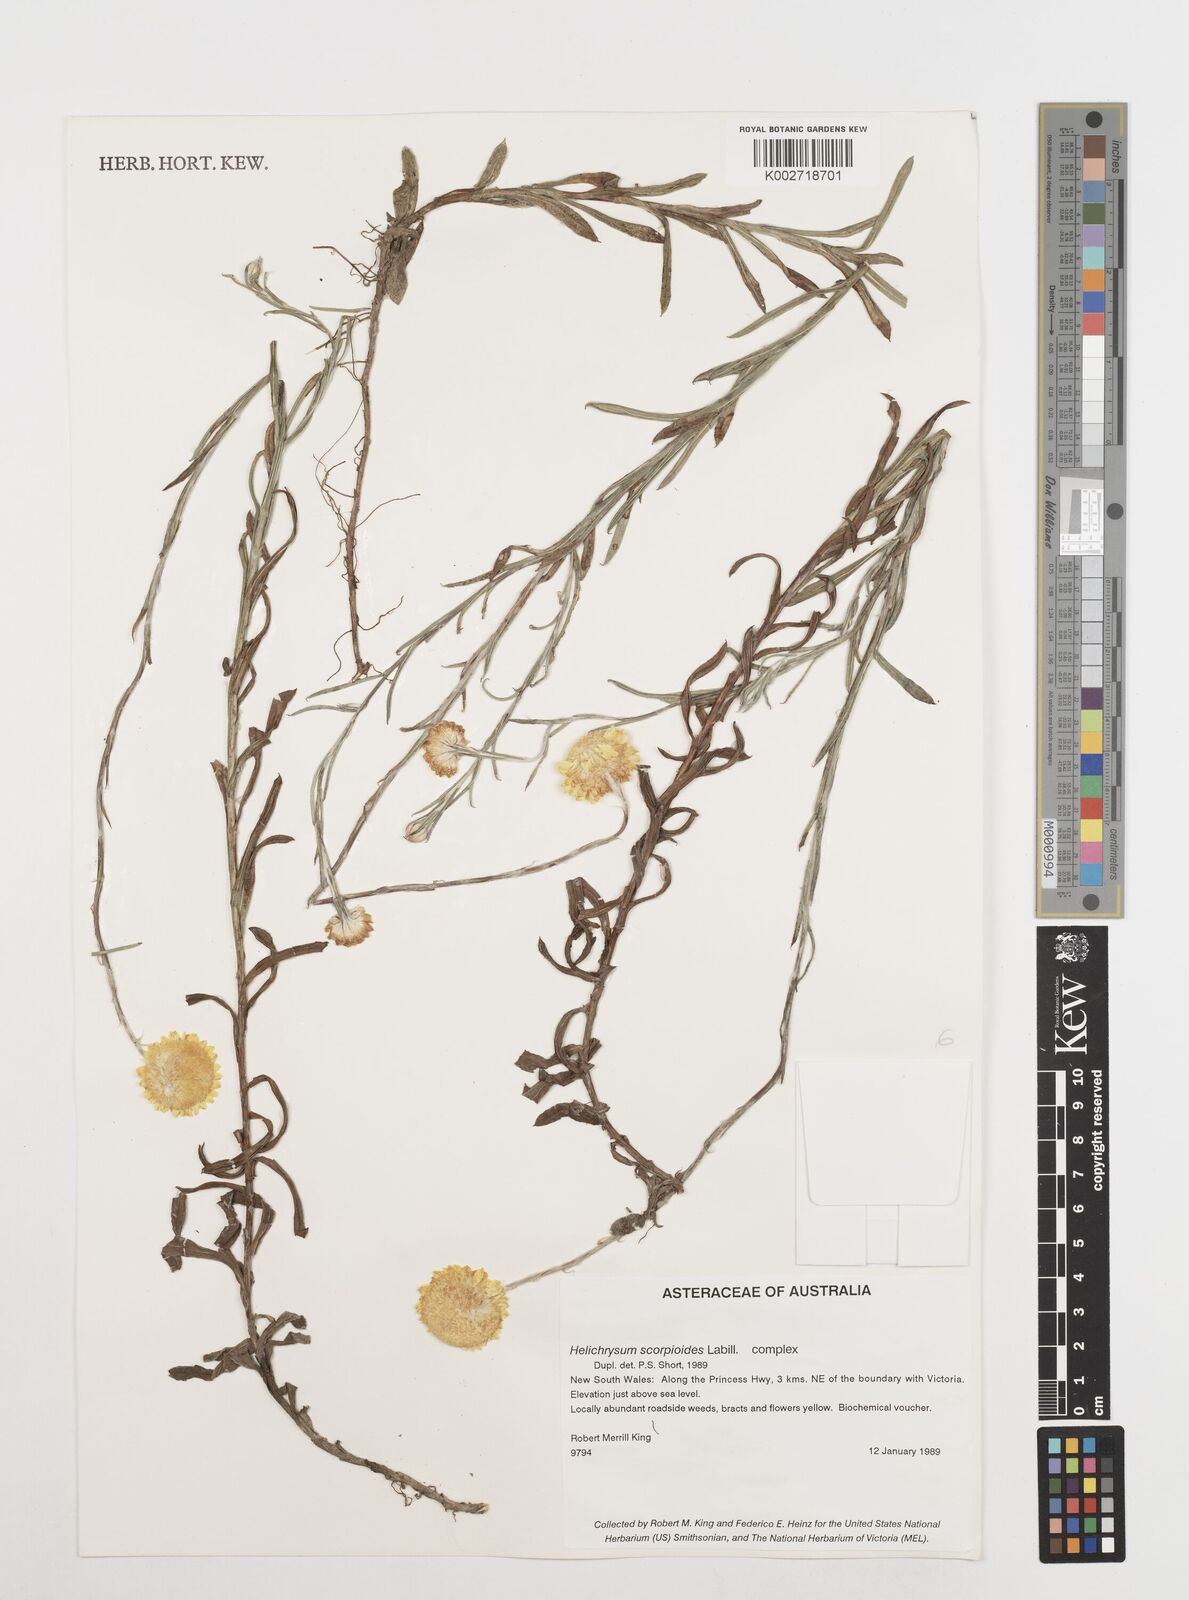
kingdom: Plantae
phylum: Tracheophyta
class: Magnoliopsida
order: Asterales
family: Asteraceae
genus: Coronidium
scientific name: Coronidium scorpioides
